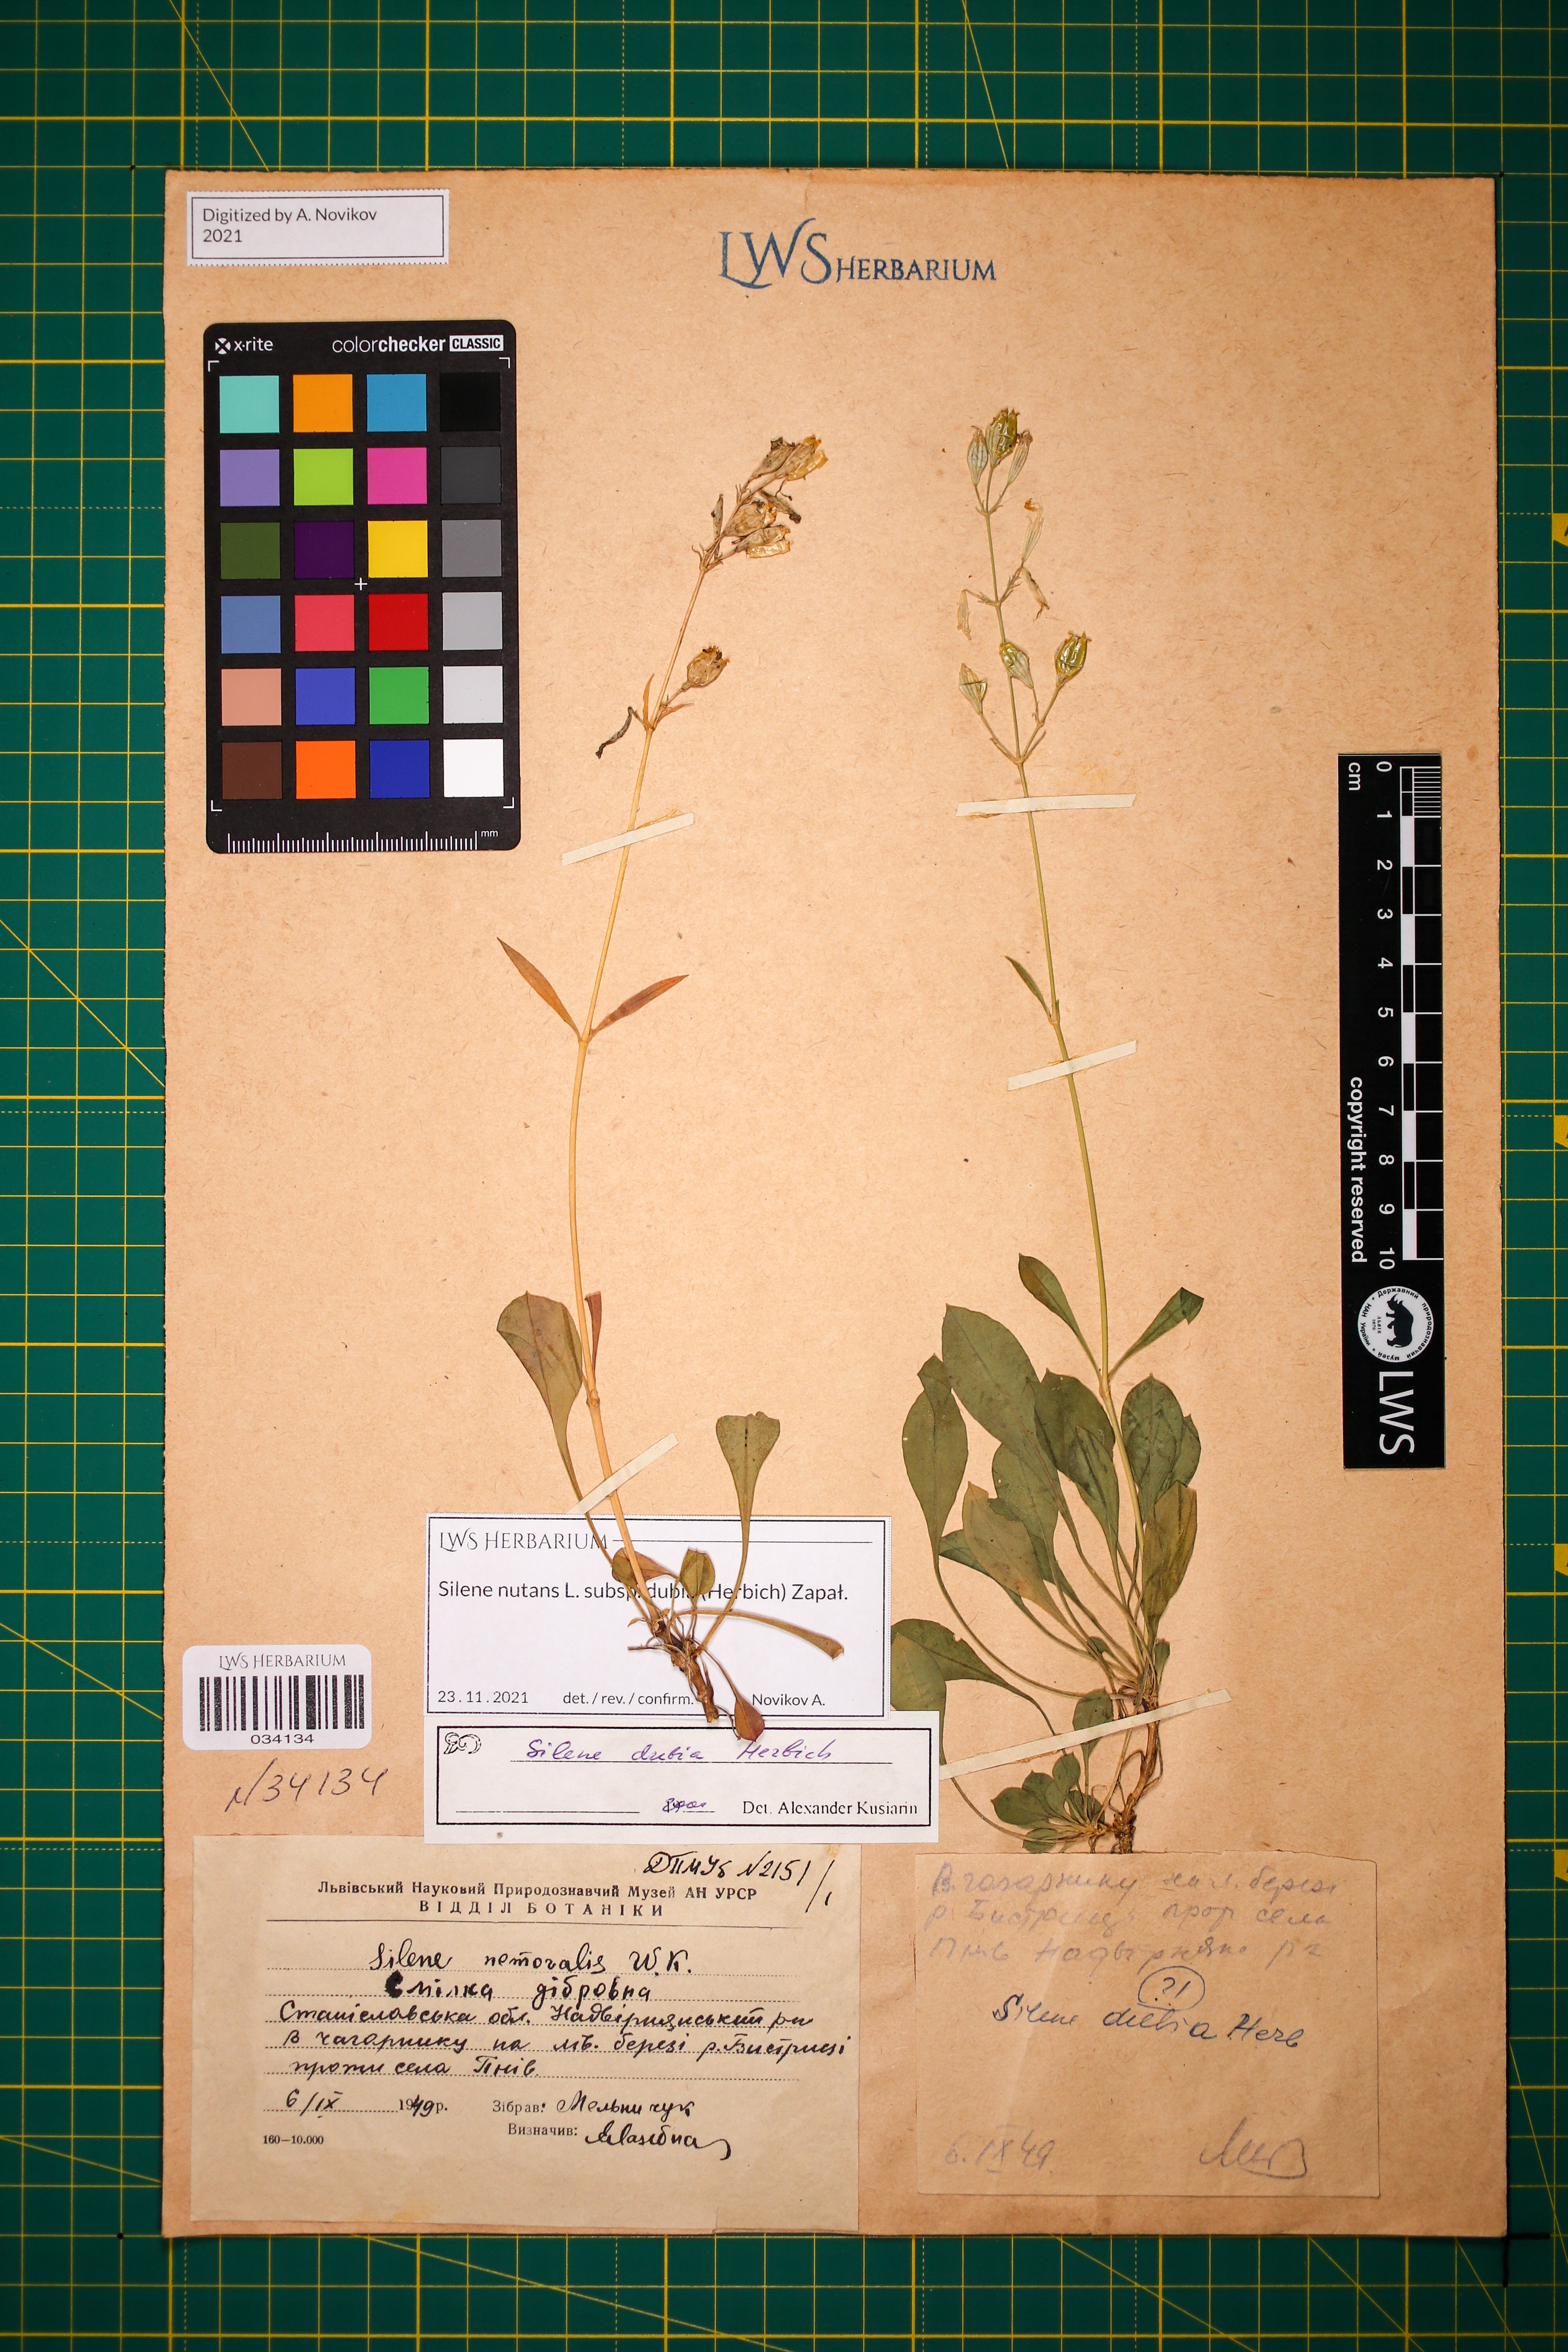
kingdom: Plantae
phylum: Tracheophyta
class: Magnoliopsida
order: Caryophyllales
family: Caryophyllaceae
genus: Silene
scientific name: Silene nutans
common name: Nottingham catchfly
